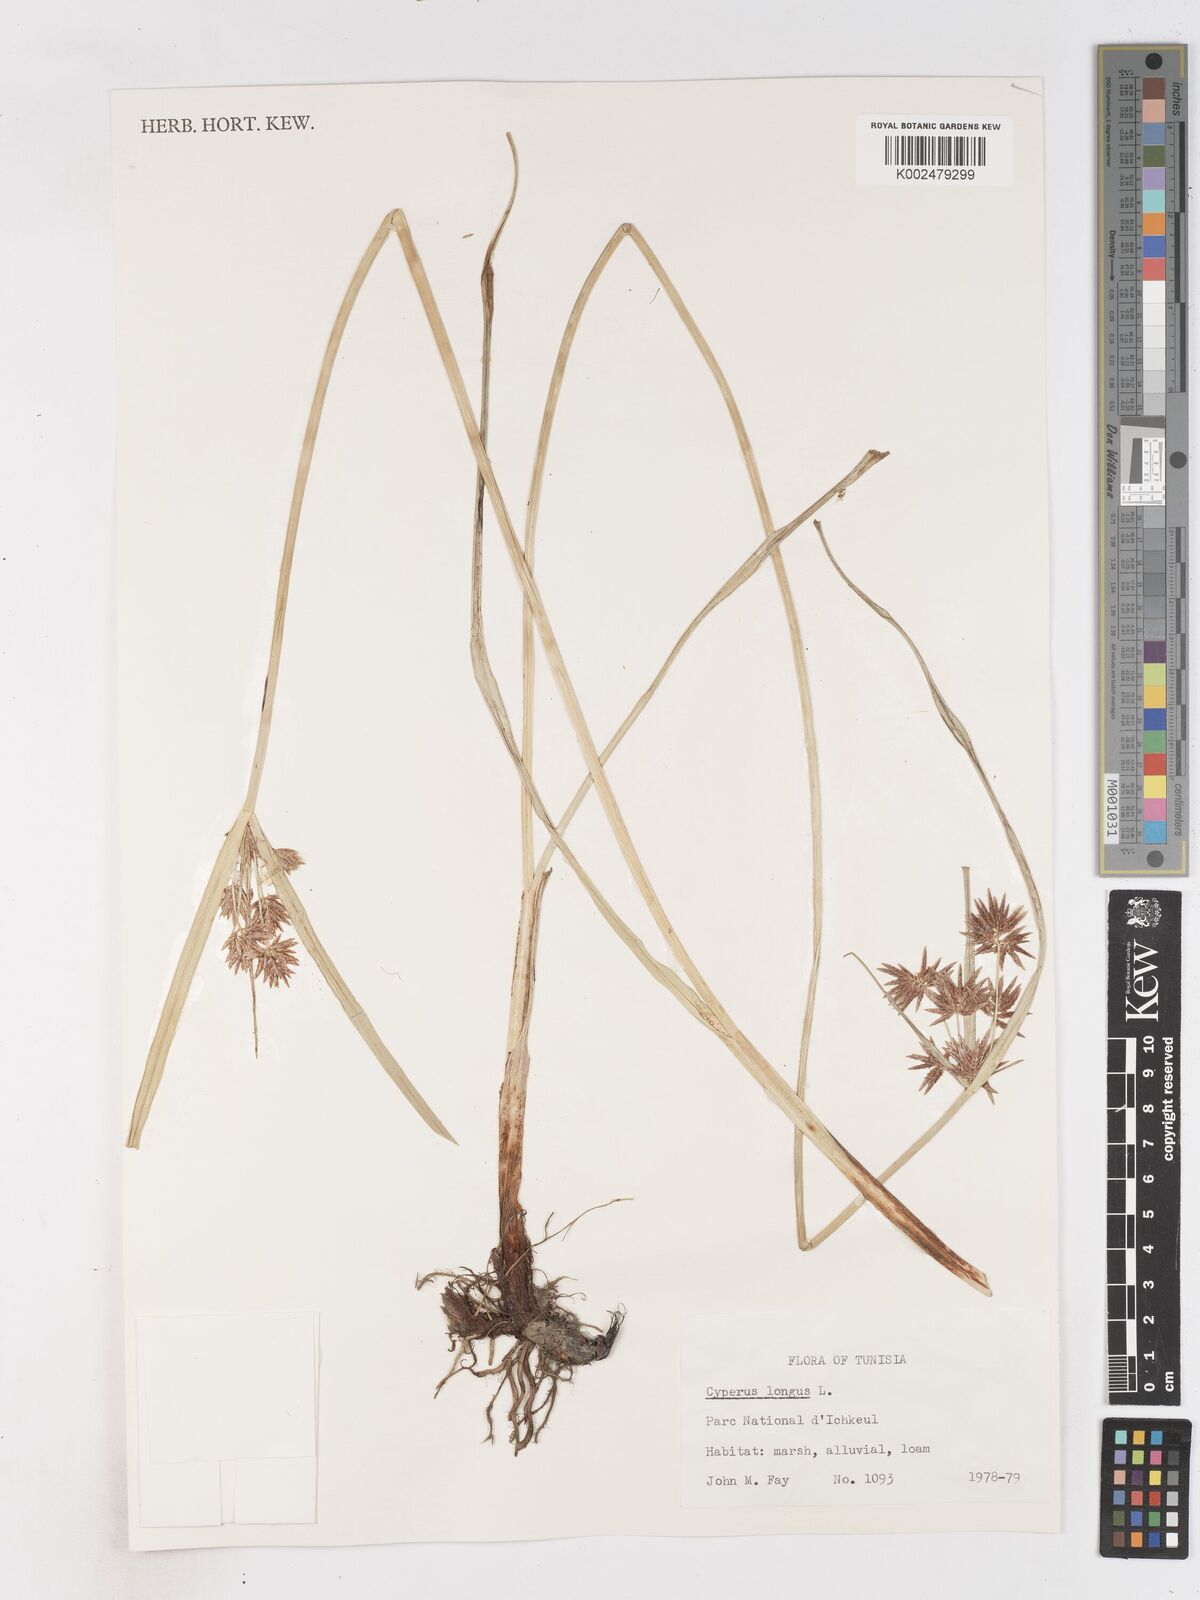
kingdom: Plantae
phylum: Tracheophyta
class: Liliopsida
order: Poales
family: Cyperaceae
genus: Cyperus
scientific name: Cyperus longus
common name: Galingale
